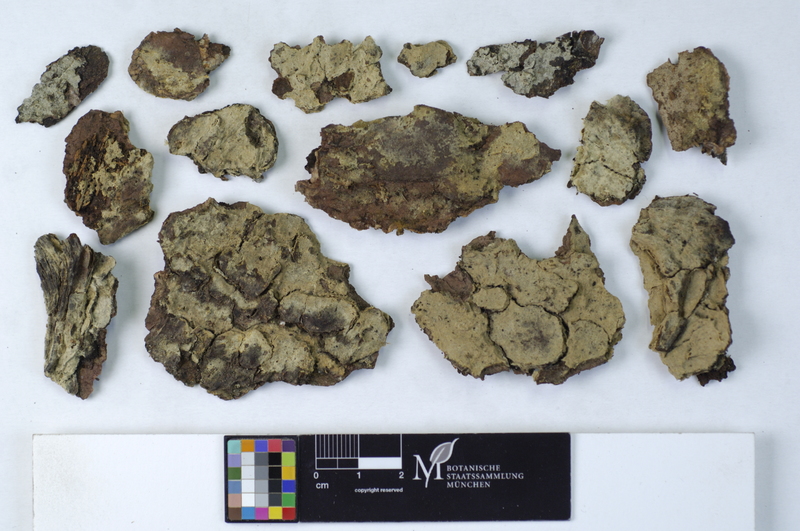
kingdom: Plantae
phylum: Tracheophyta
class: Pinopsida
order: Pinales
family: Pinaceae
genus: Picea
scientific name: Picea
